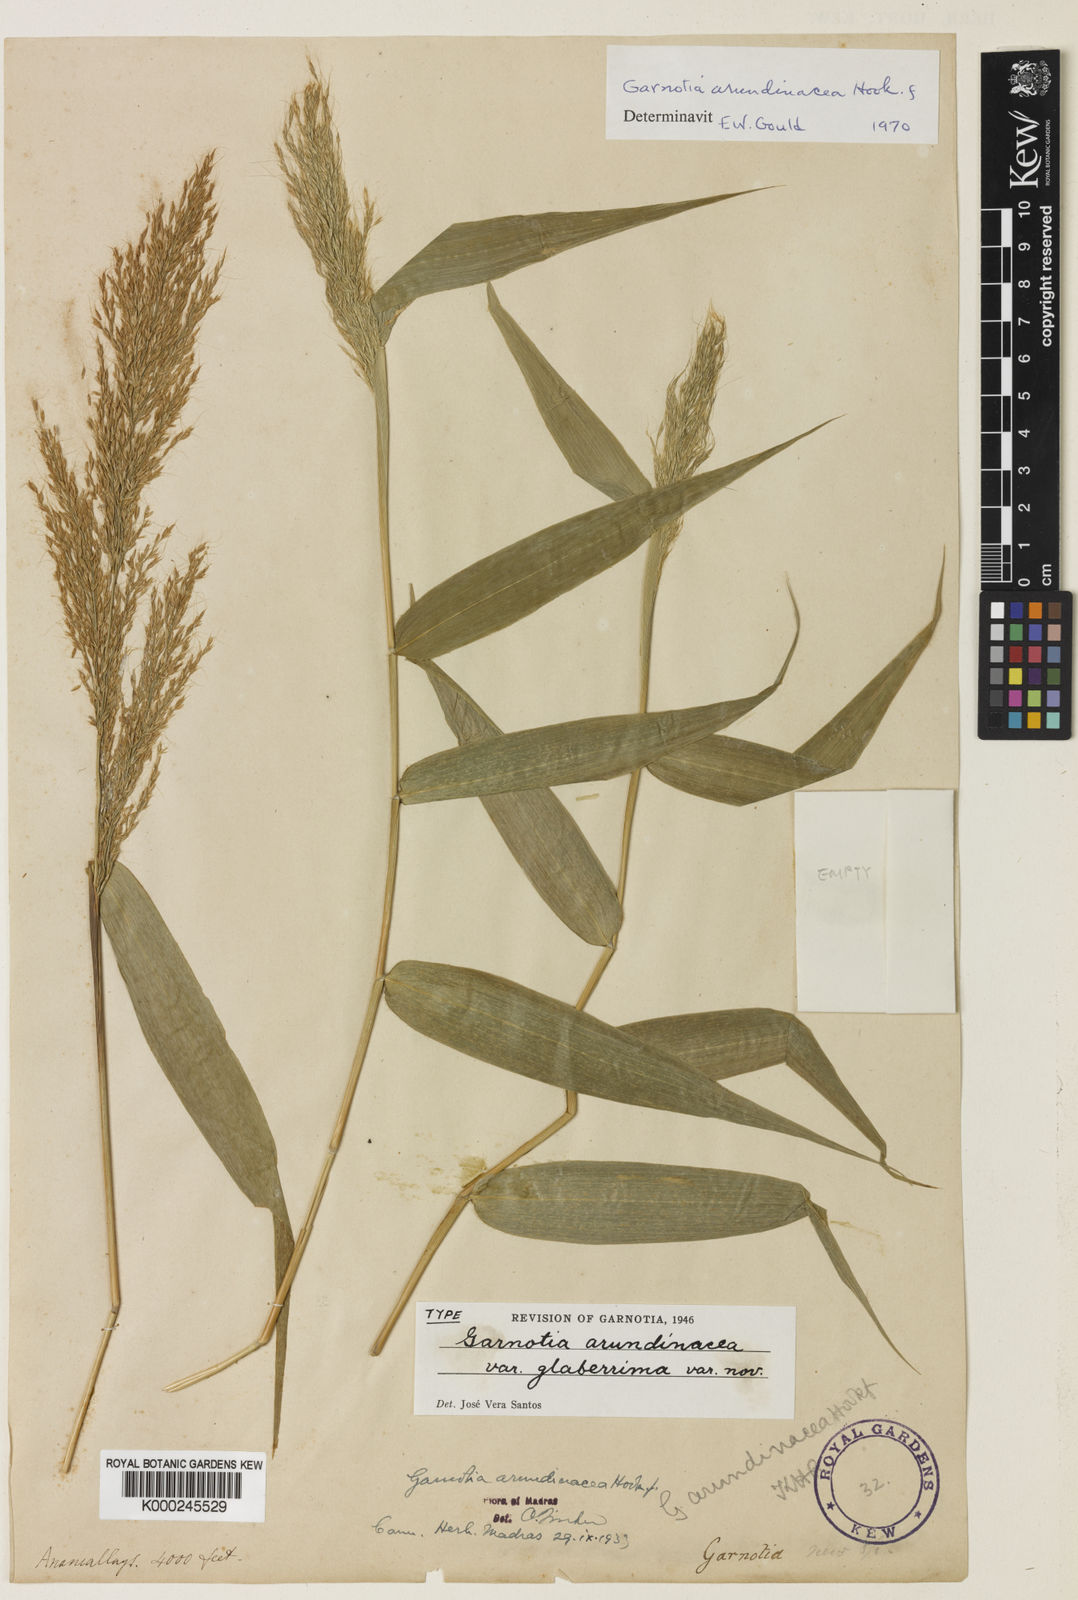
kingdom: Plantae
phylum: Tracheophyta
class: Liliopsida
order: Poales
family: Poaceae
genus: Garnotia
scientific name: Garnotia arundinacea
